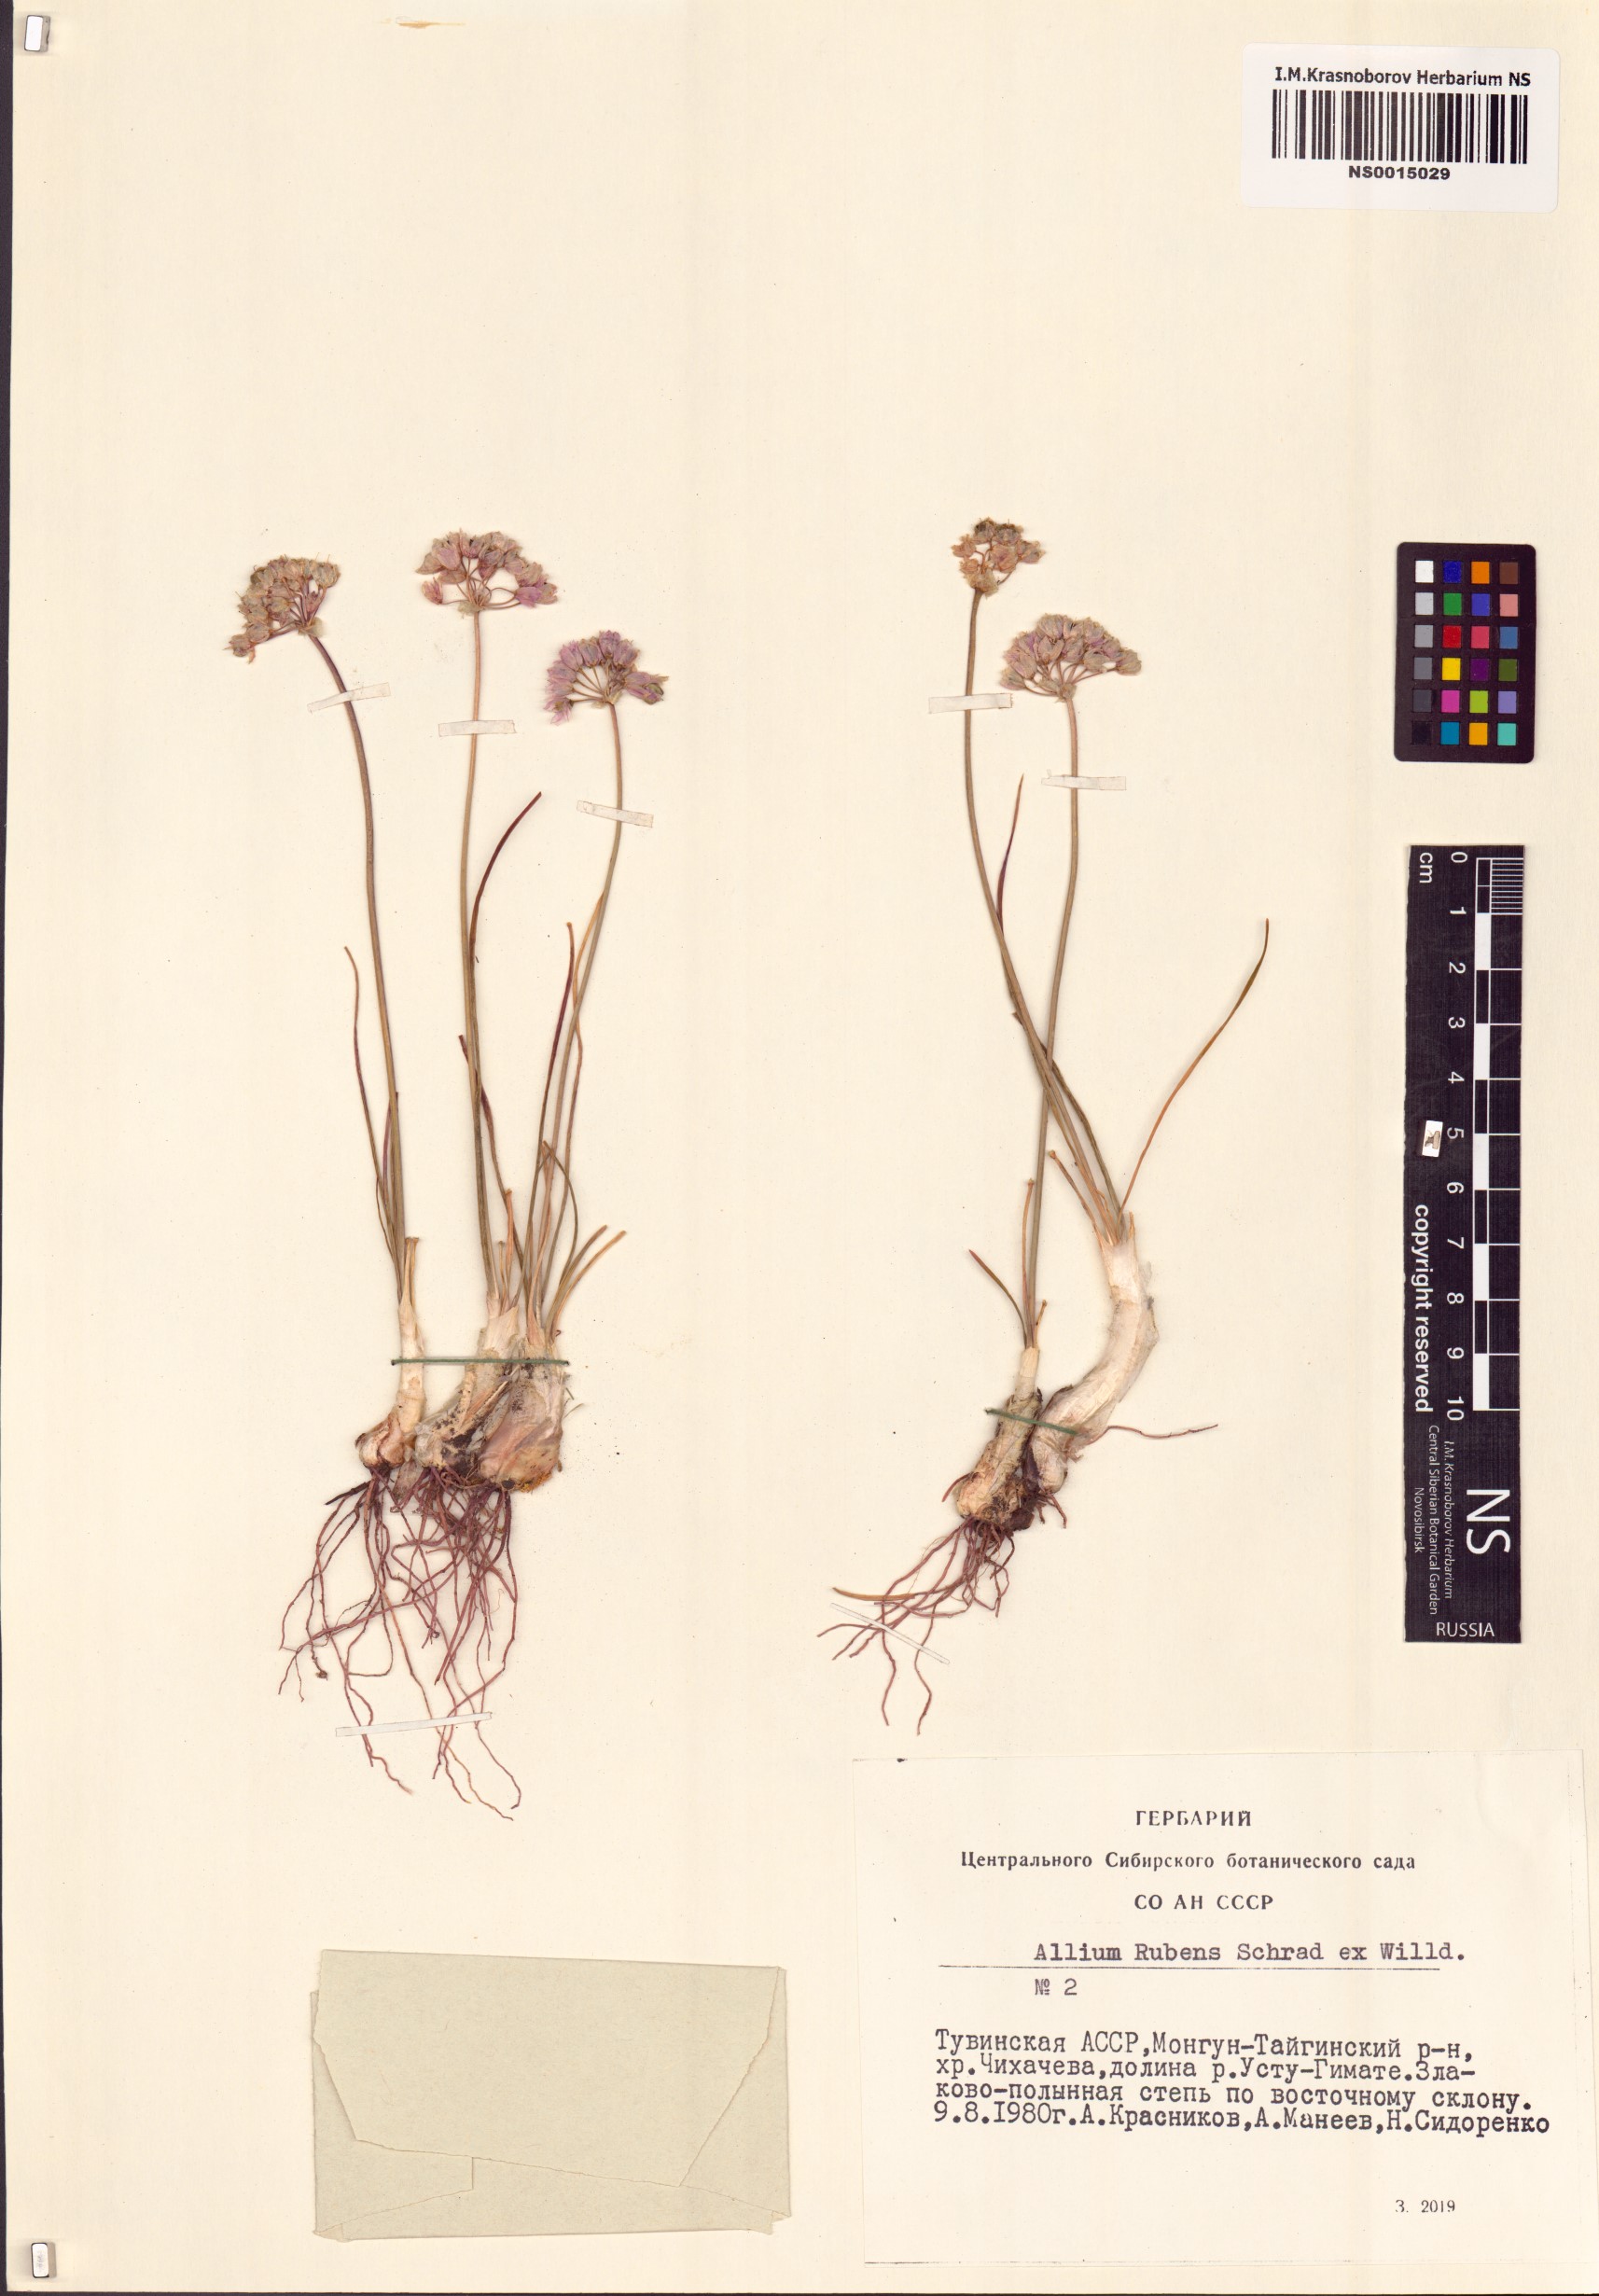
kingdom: Plantae
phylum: Tracheophyta
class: Liliopsida
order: Asparagales
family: Amaryllidaceae
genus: Allium
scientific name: Allium rubens
